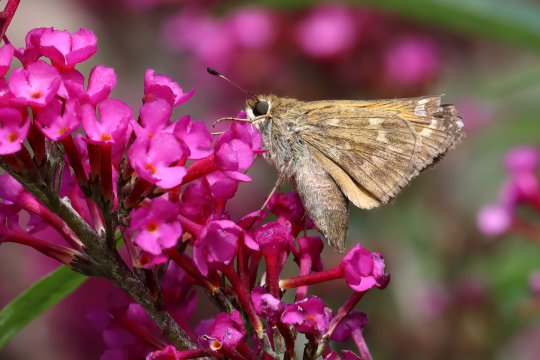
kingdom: Animalia
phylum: Arthropoda
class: Insecta
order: Lepidoptera
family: Hesperiidae
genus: Atalopedes
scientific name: Atalopedes campestris
